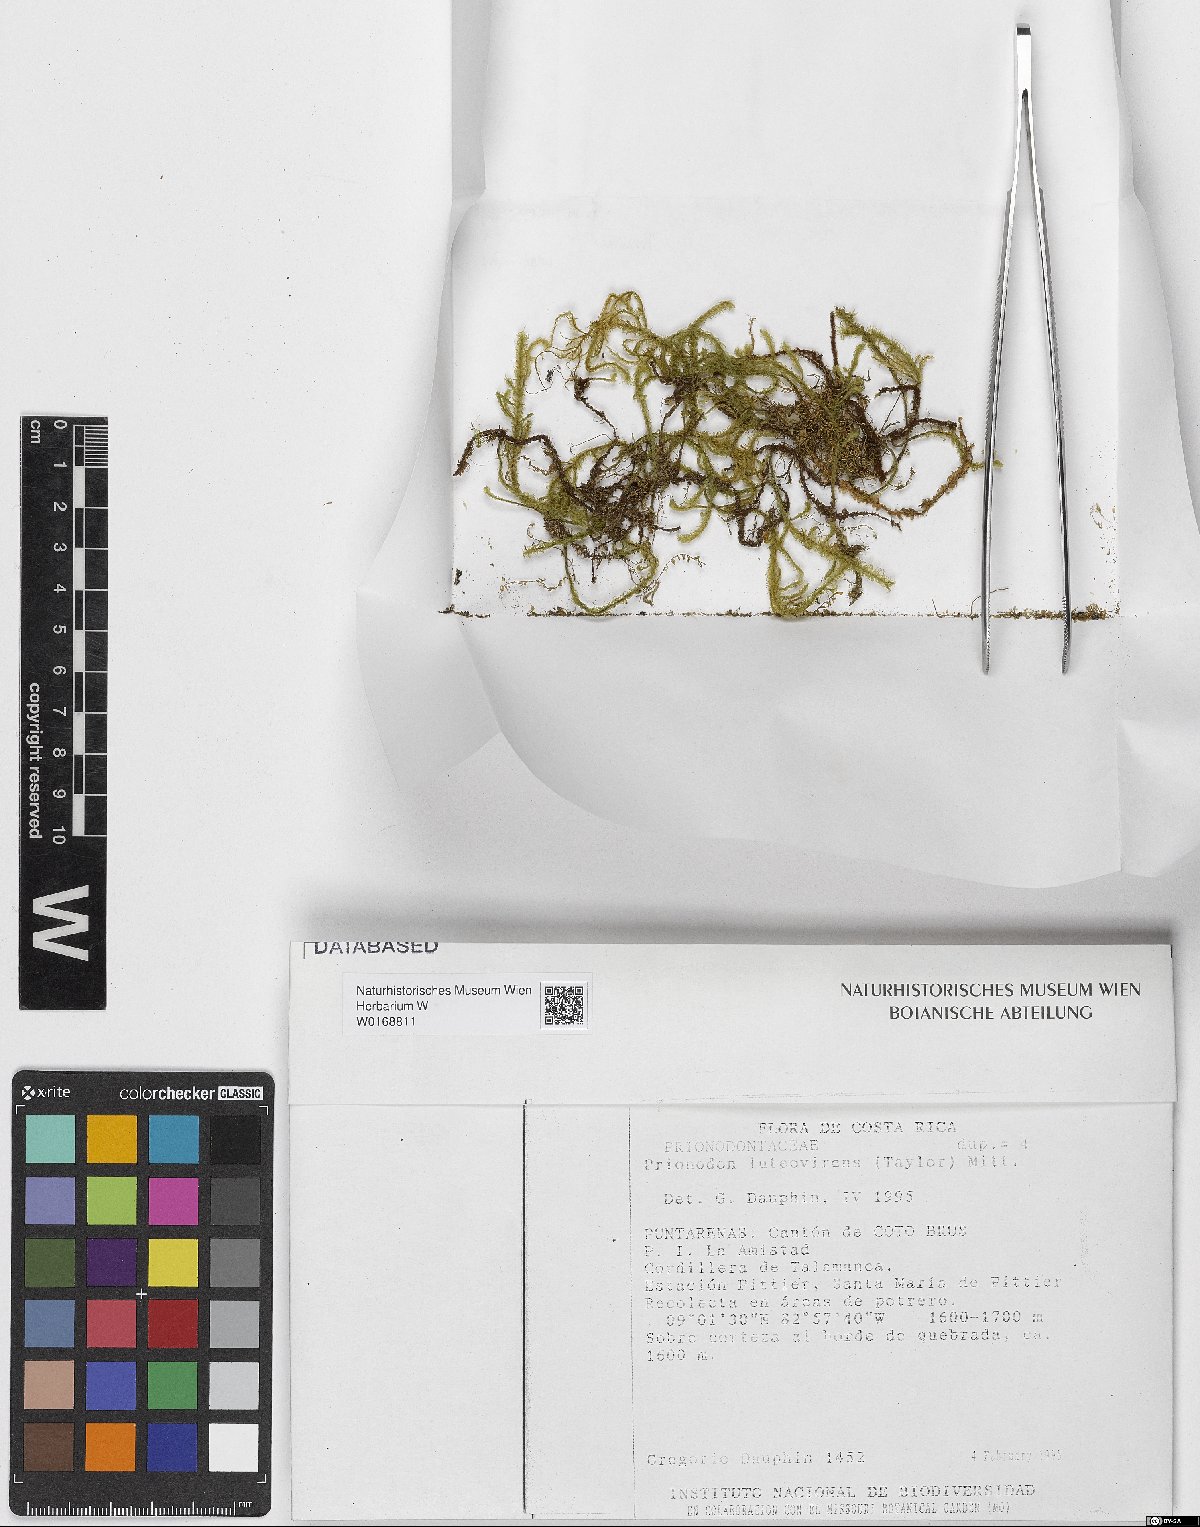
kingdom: Plantae
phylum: Bryophyta
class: Bryopsida
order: Hypnales
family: Prionodontaceae
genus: Prionodon
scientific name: Prionodon luteovirens
